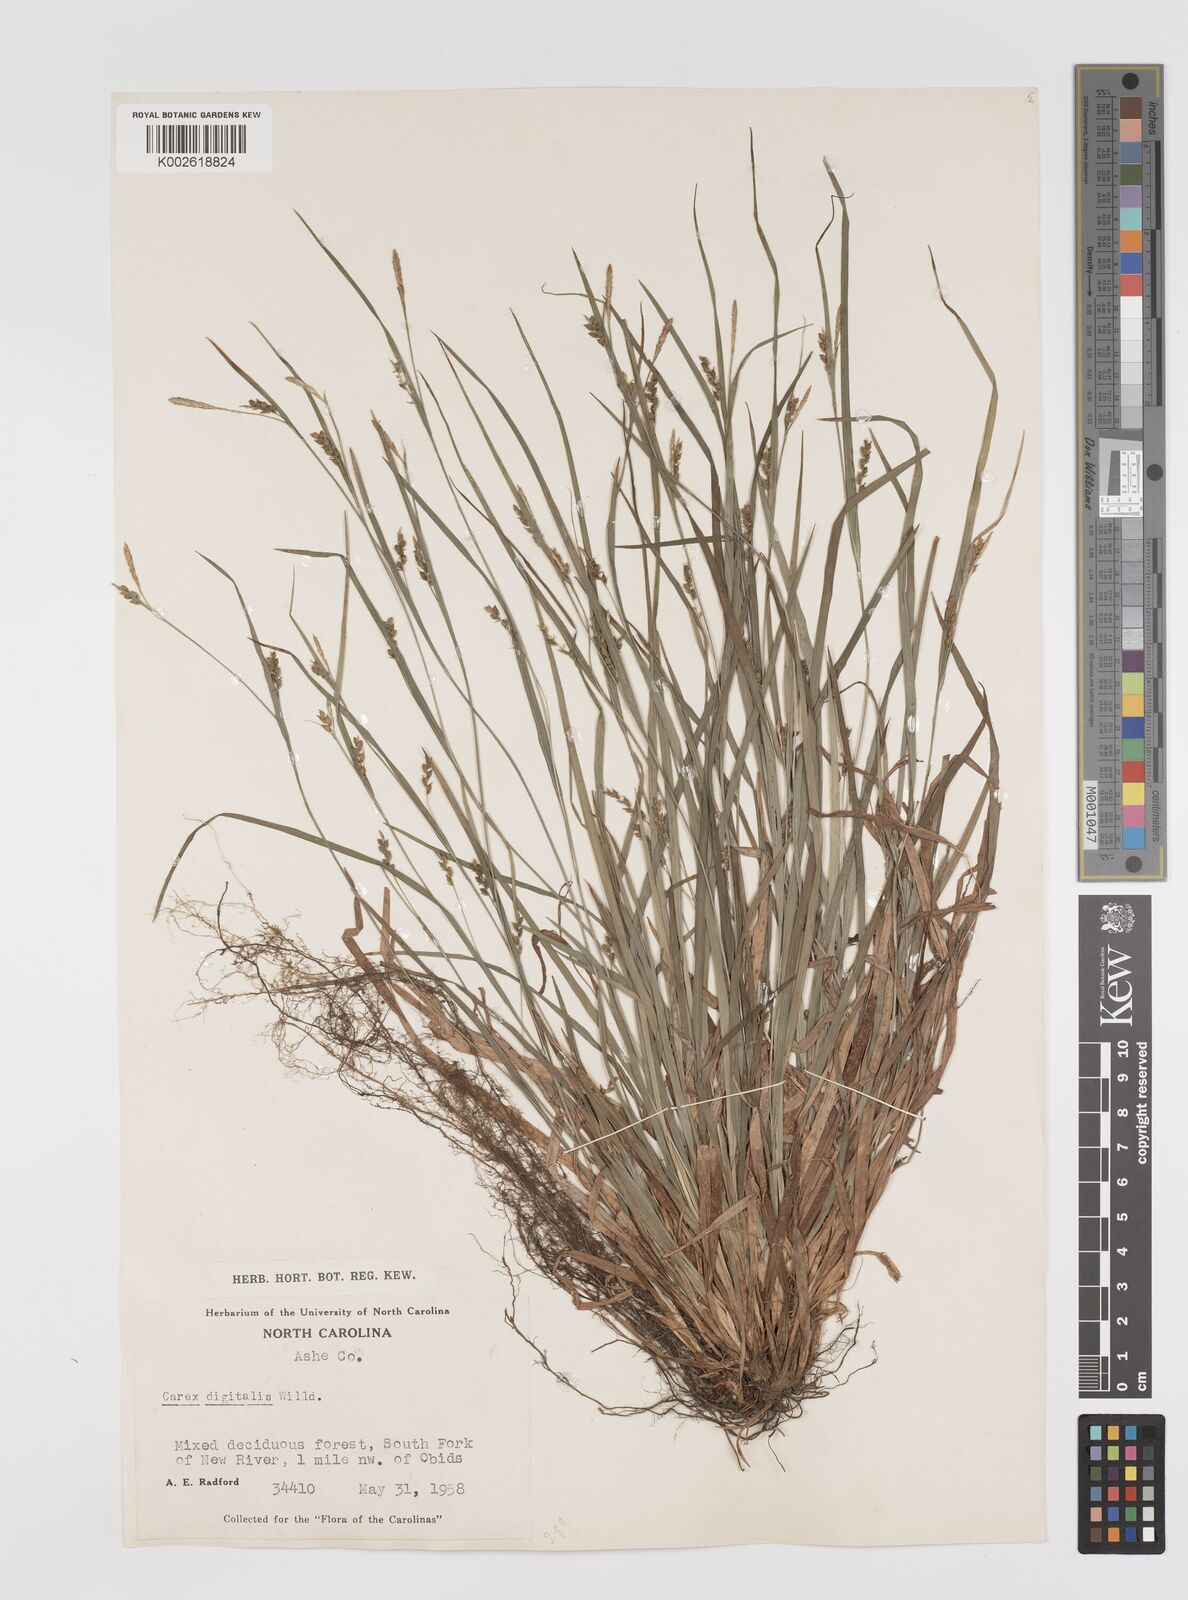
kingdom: Plantae
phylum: Tracheophyta
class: Liliopsida
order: Poales
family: Cyperaceae
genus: Carex
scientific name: Carex digitalis
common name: Slender wood sedge
